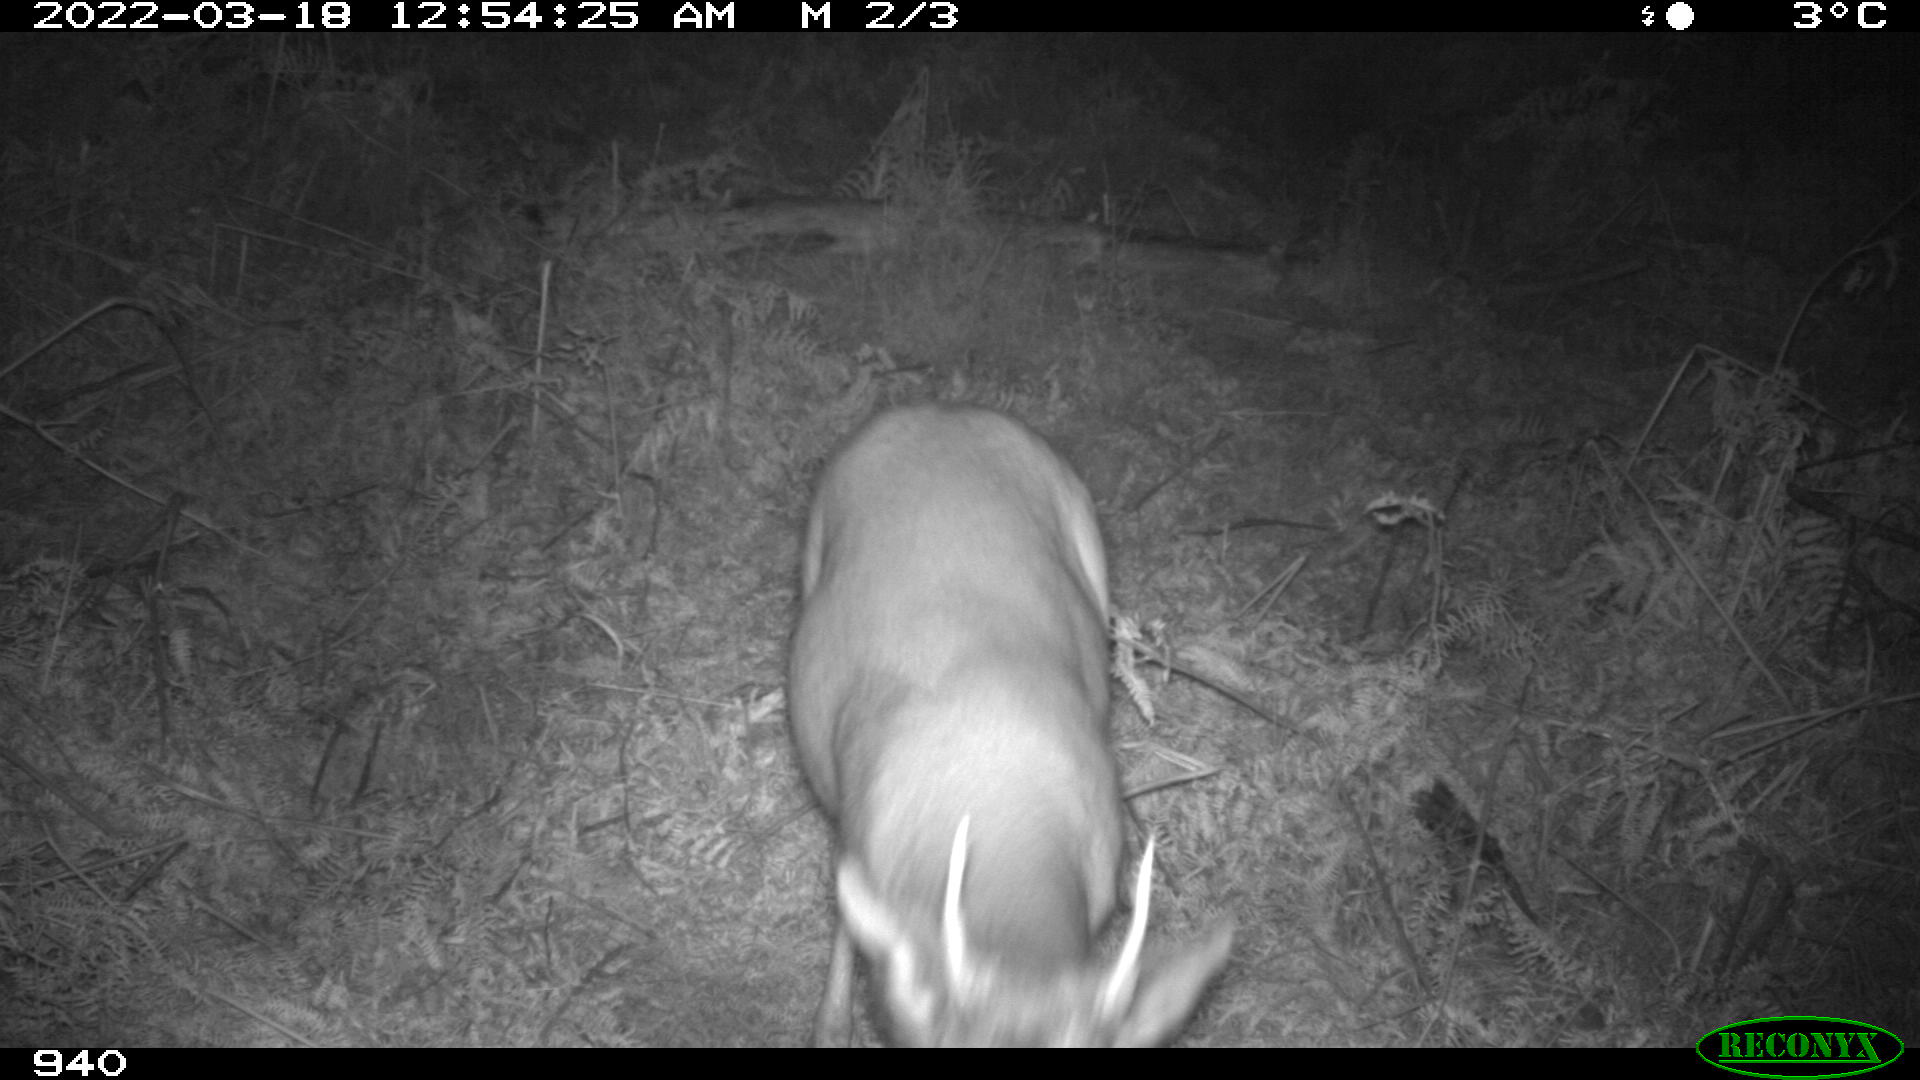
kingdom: Animalia
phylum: Chordata
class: Mammalia
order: Artiodactyla
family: Cervidae
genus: Capreolus
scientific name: Capreolus capreolus
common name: Western roe deer
